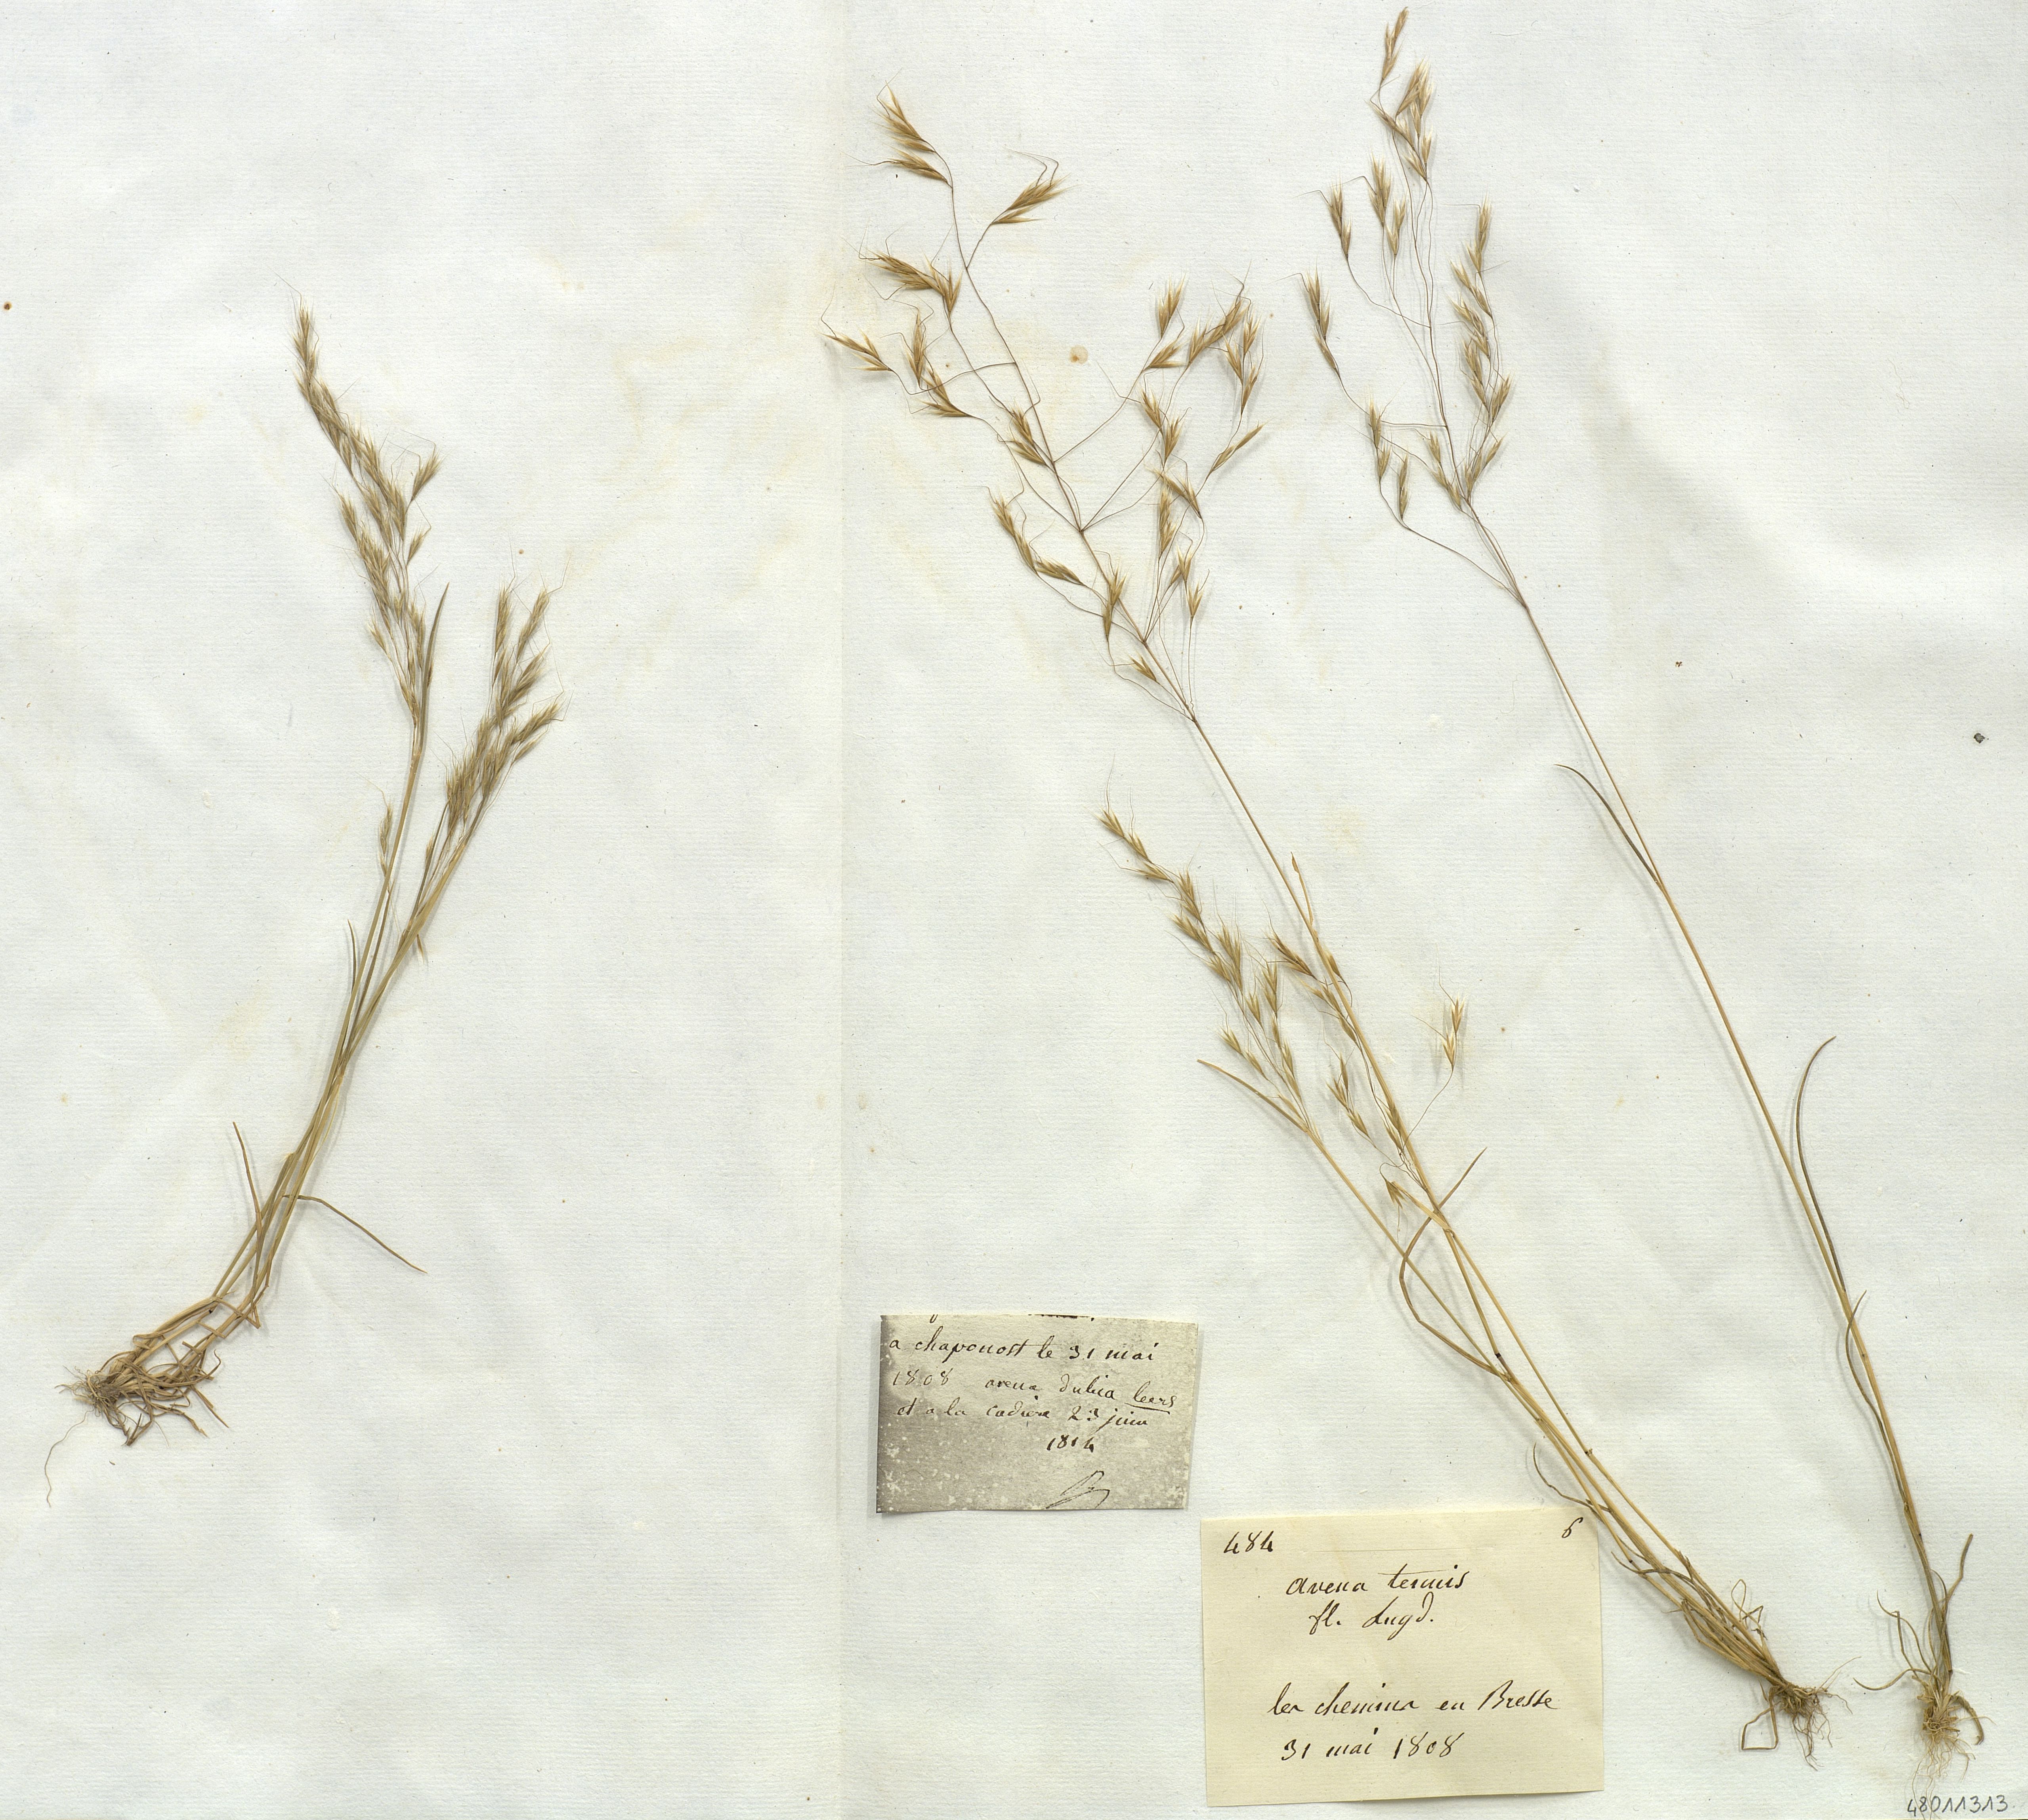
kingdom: Plantae
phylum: Tracheophyta
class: Liliopsida
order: Poales
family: Poaceae
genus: Ventenata
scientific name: Ventenata dubia
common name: North africa grass
